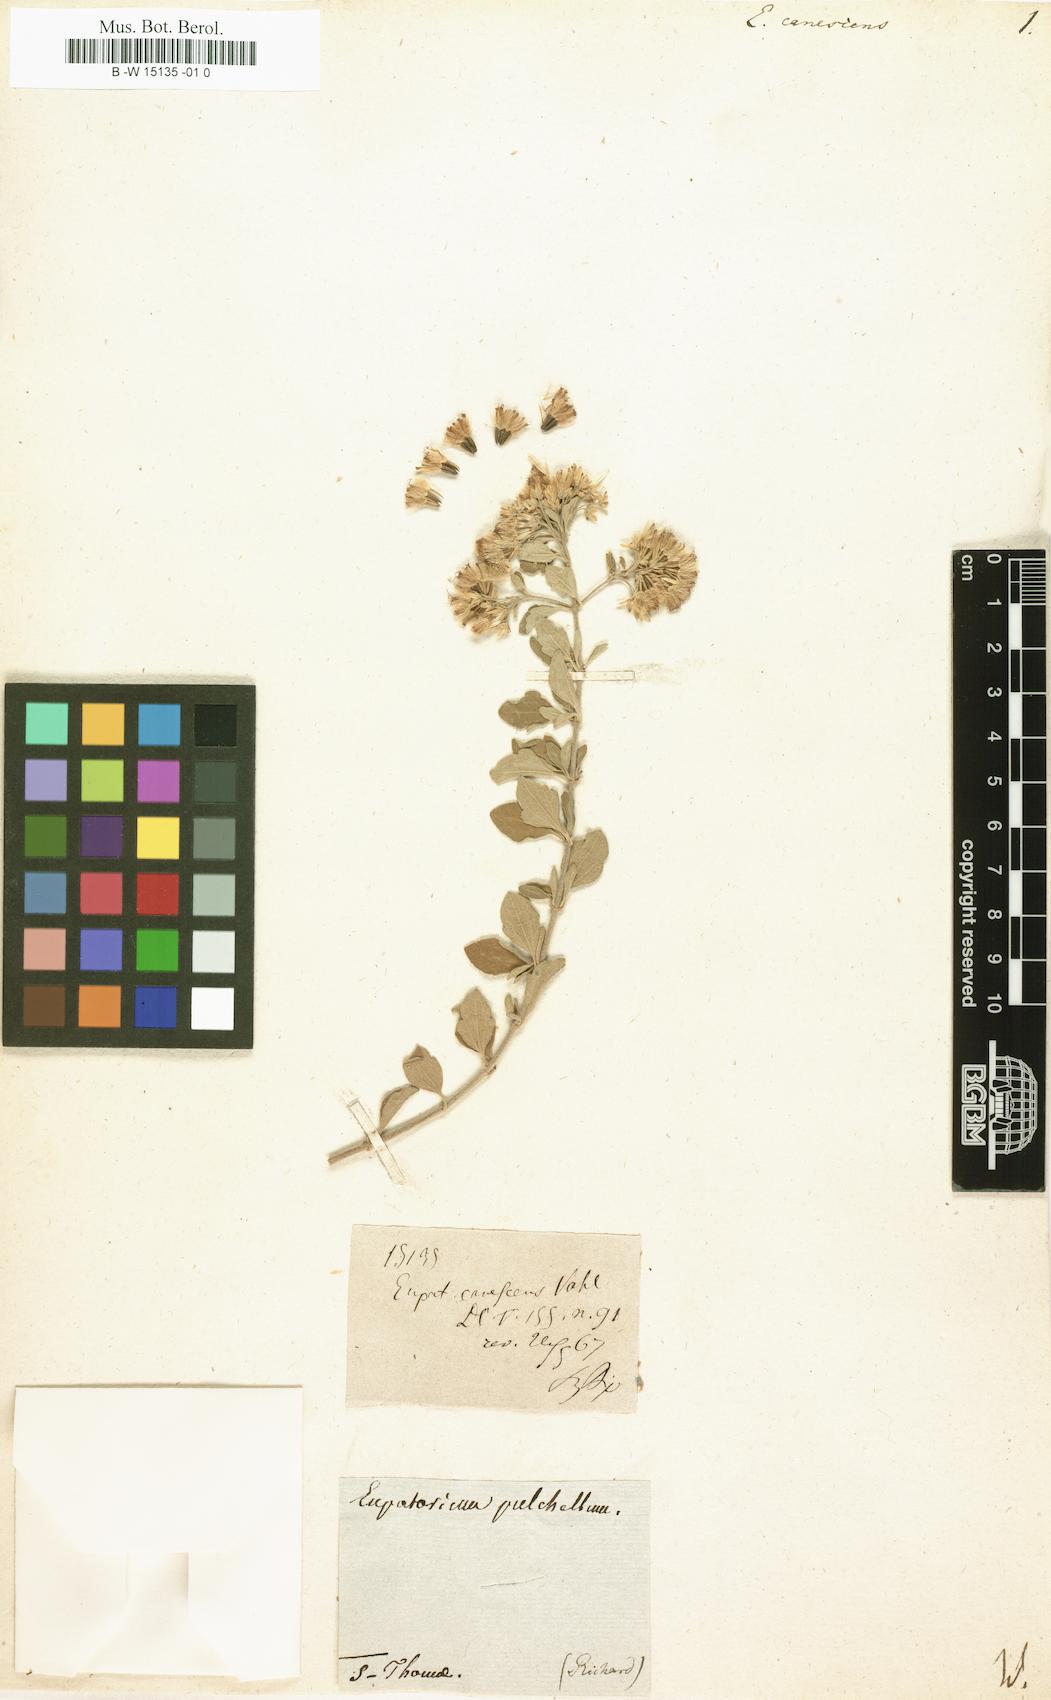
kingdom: Plantae
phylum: Tracheophyta
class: Magnoliopsida
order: Asterales
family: Asteraceae
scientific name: Asteraceae
